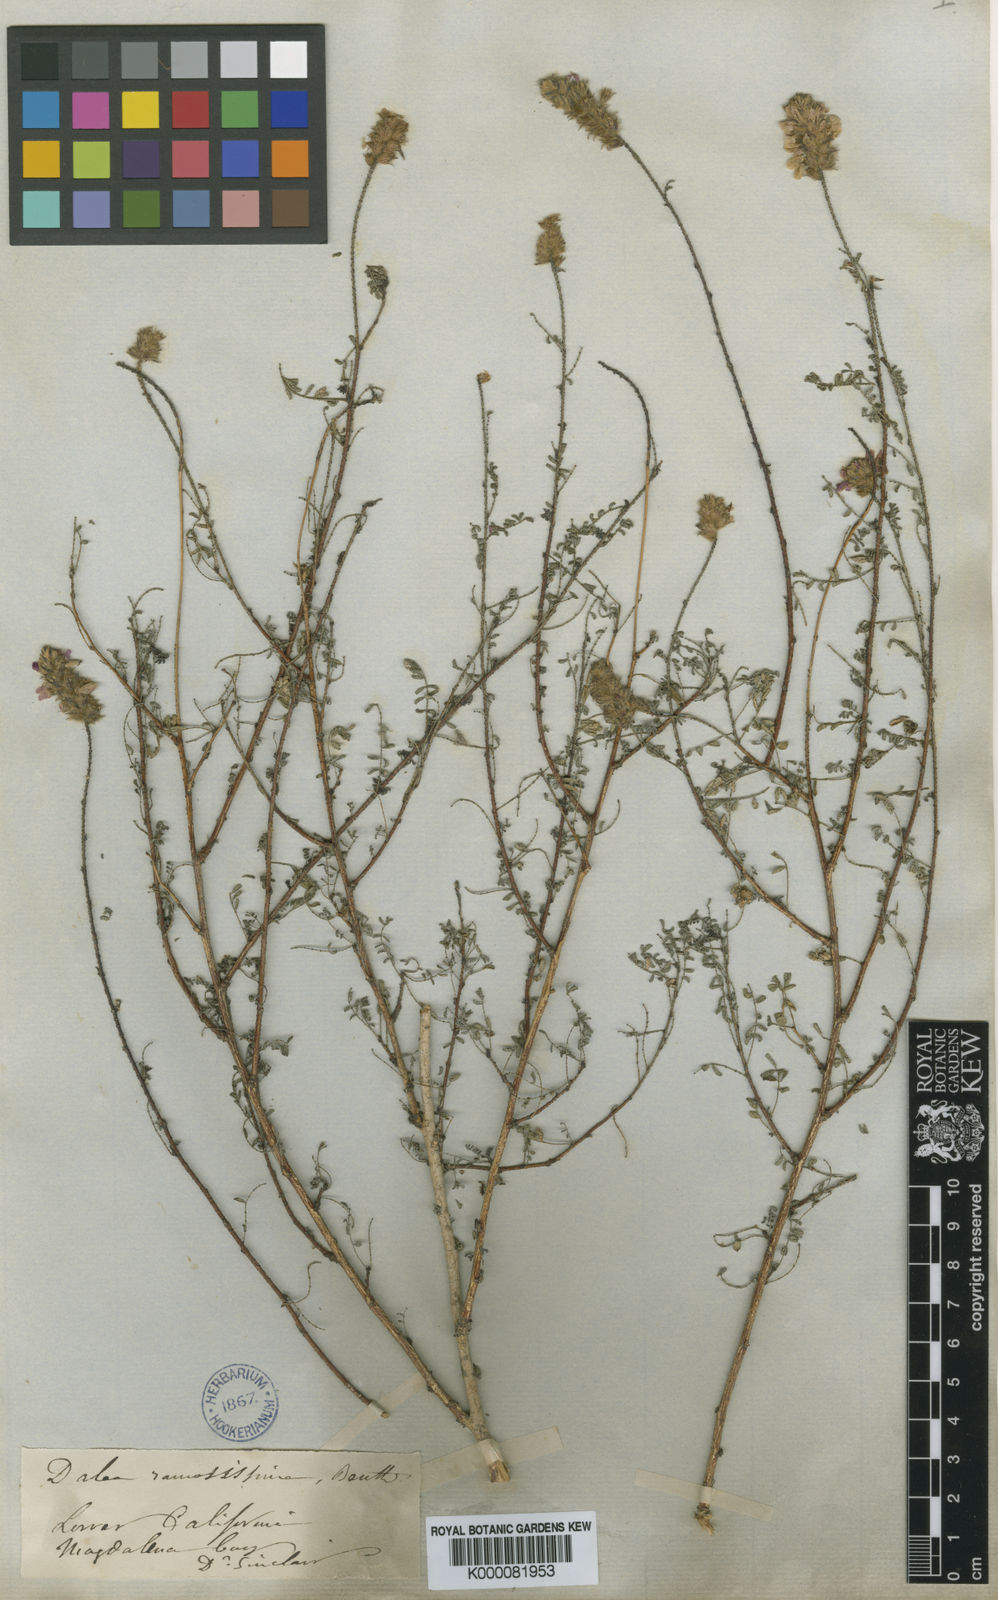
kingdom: Plantae
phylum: Tracheophyta
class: Magnoliopsida
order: Fabales
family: Fabaceae
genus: Dalea
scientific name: Dalea brandegeei
